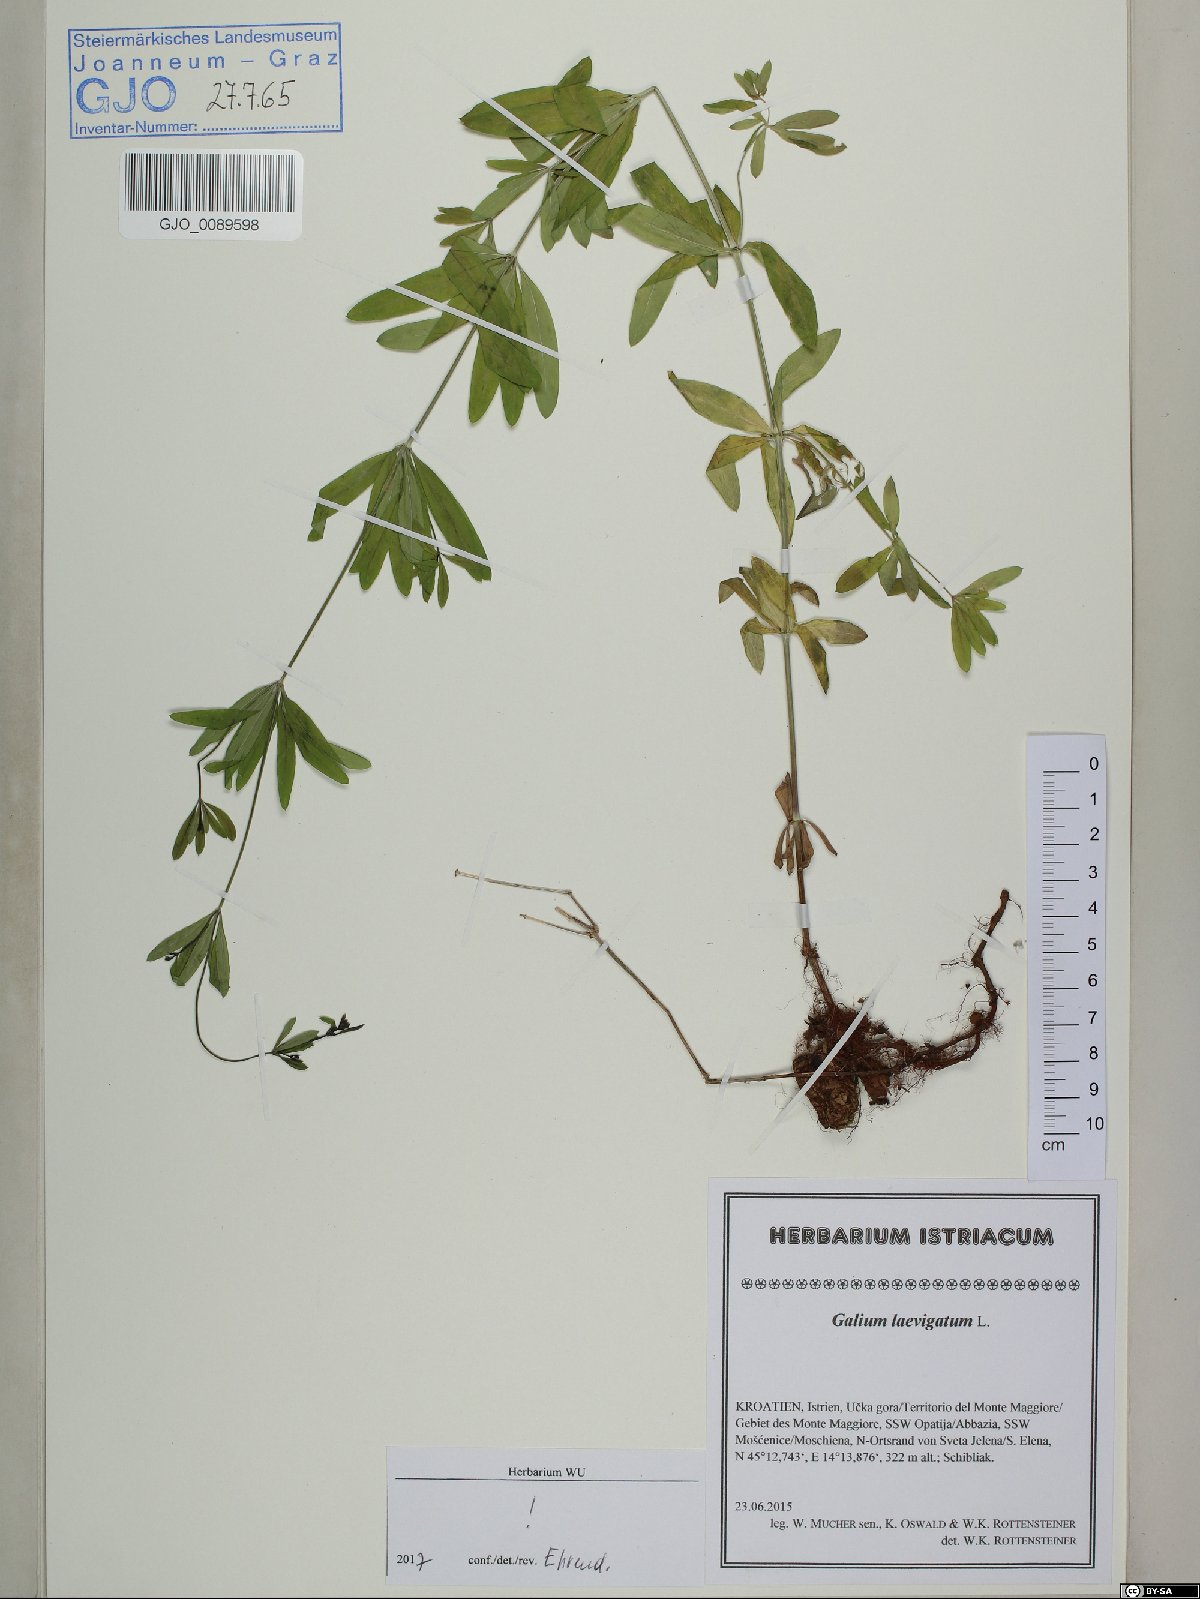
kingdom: Plantae
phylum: Tracheophyta
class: Magnoliopsida
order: Gentianales
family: Rubiaceae
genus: Galium
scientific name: Galium laevigatum
